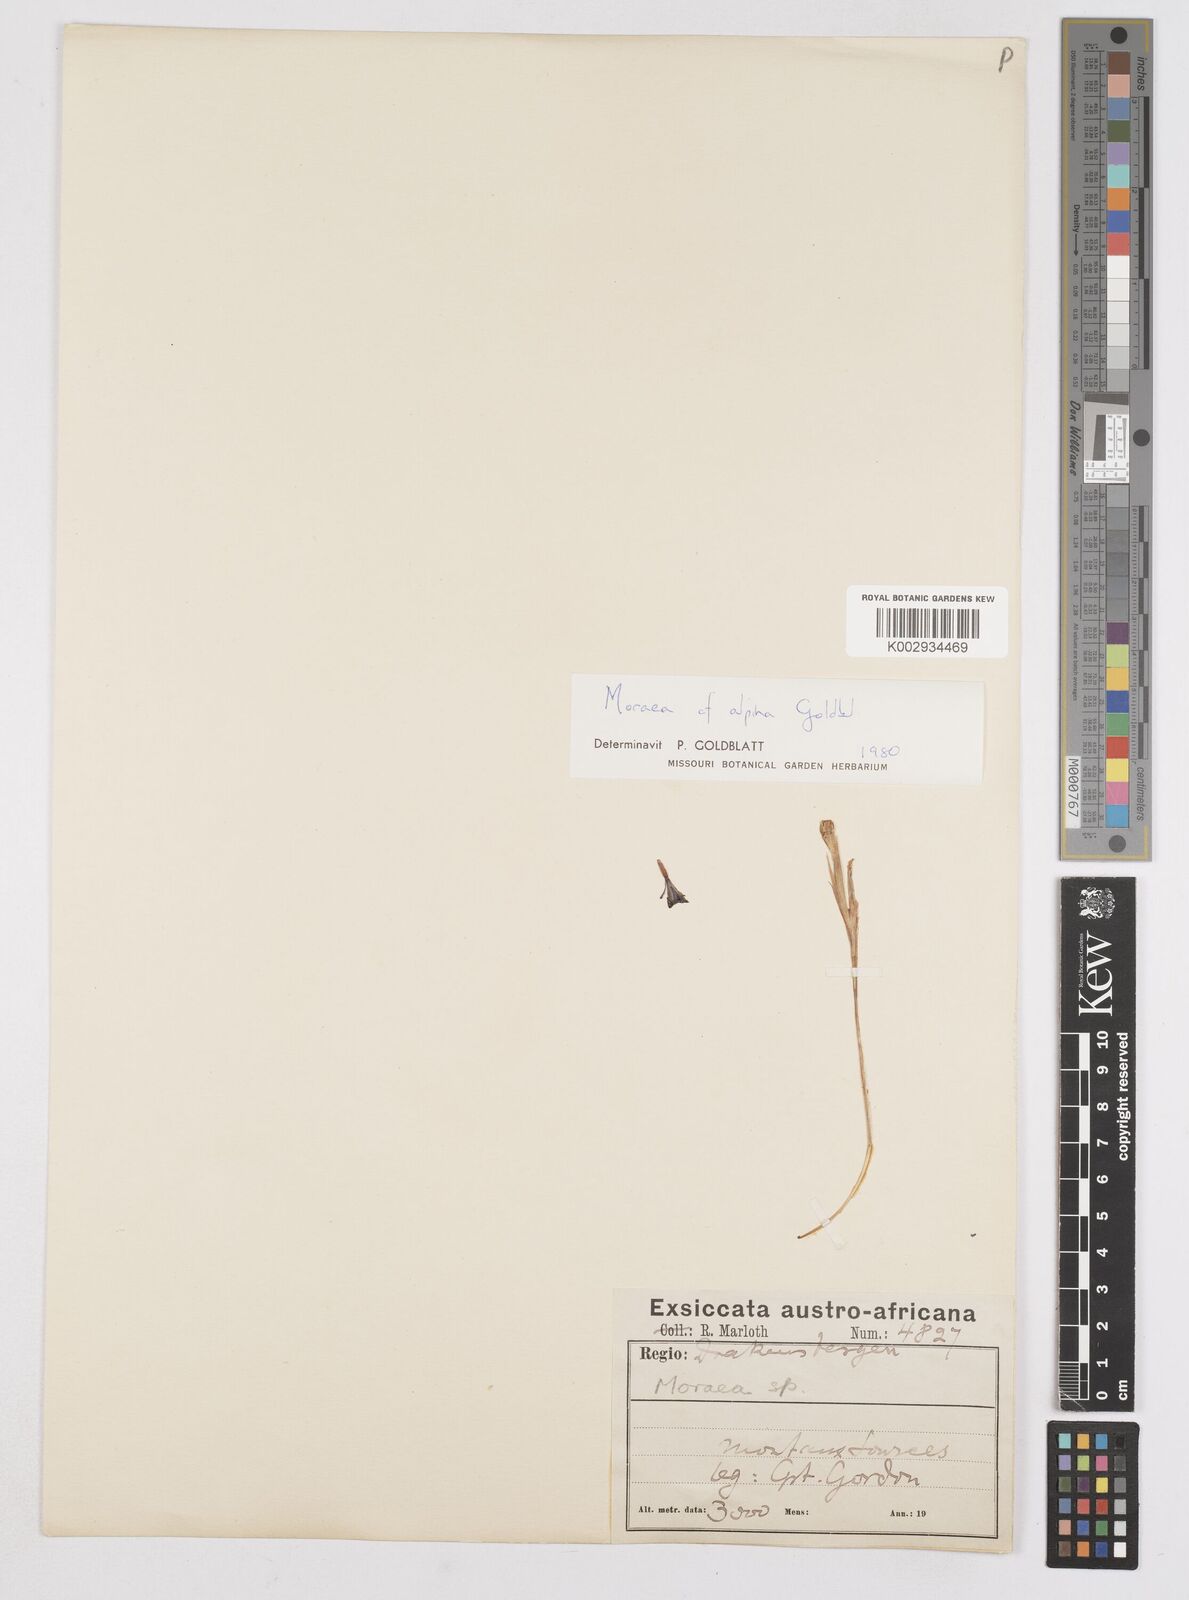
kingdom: Plantae
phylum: Tracheophyta
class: Liliopsida
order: Asparagales
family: Iridaceae
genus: Moraea
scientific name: Moraea alpina
